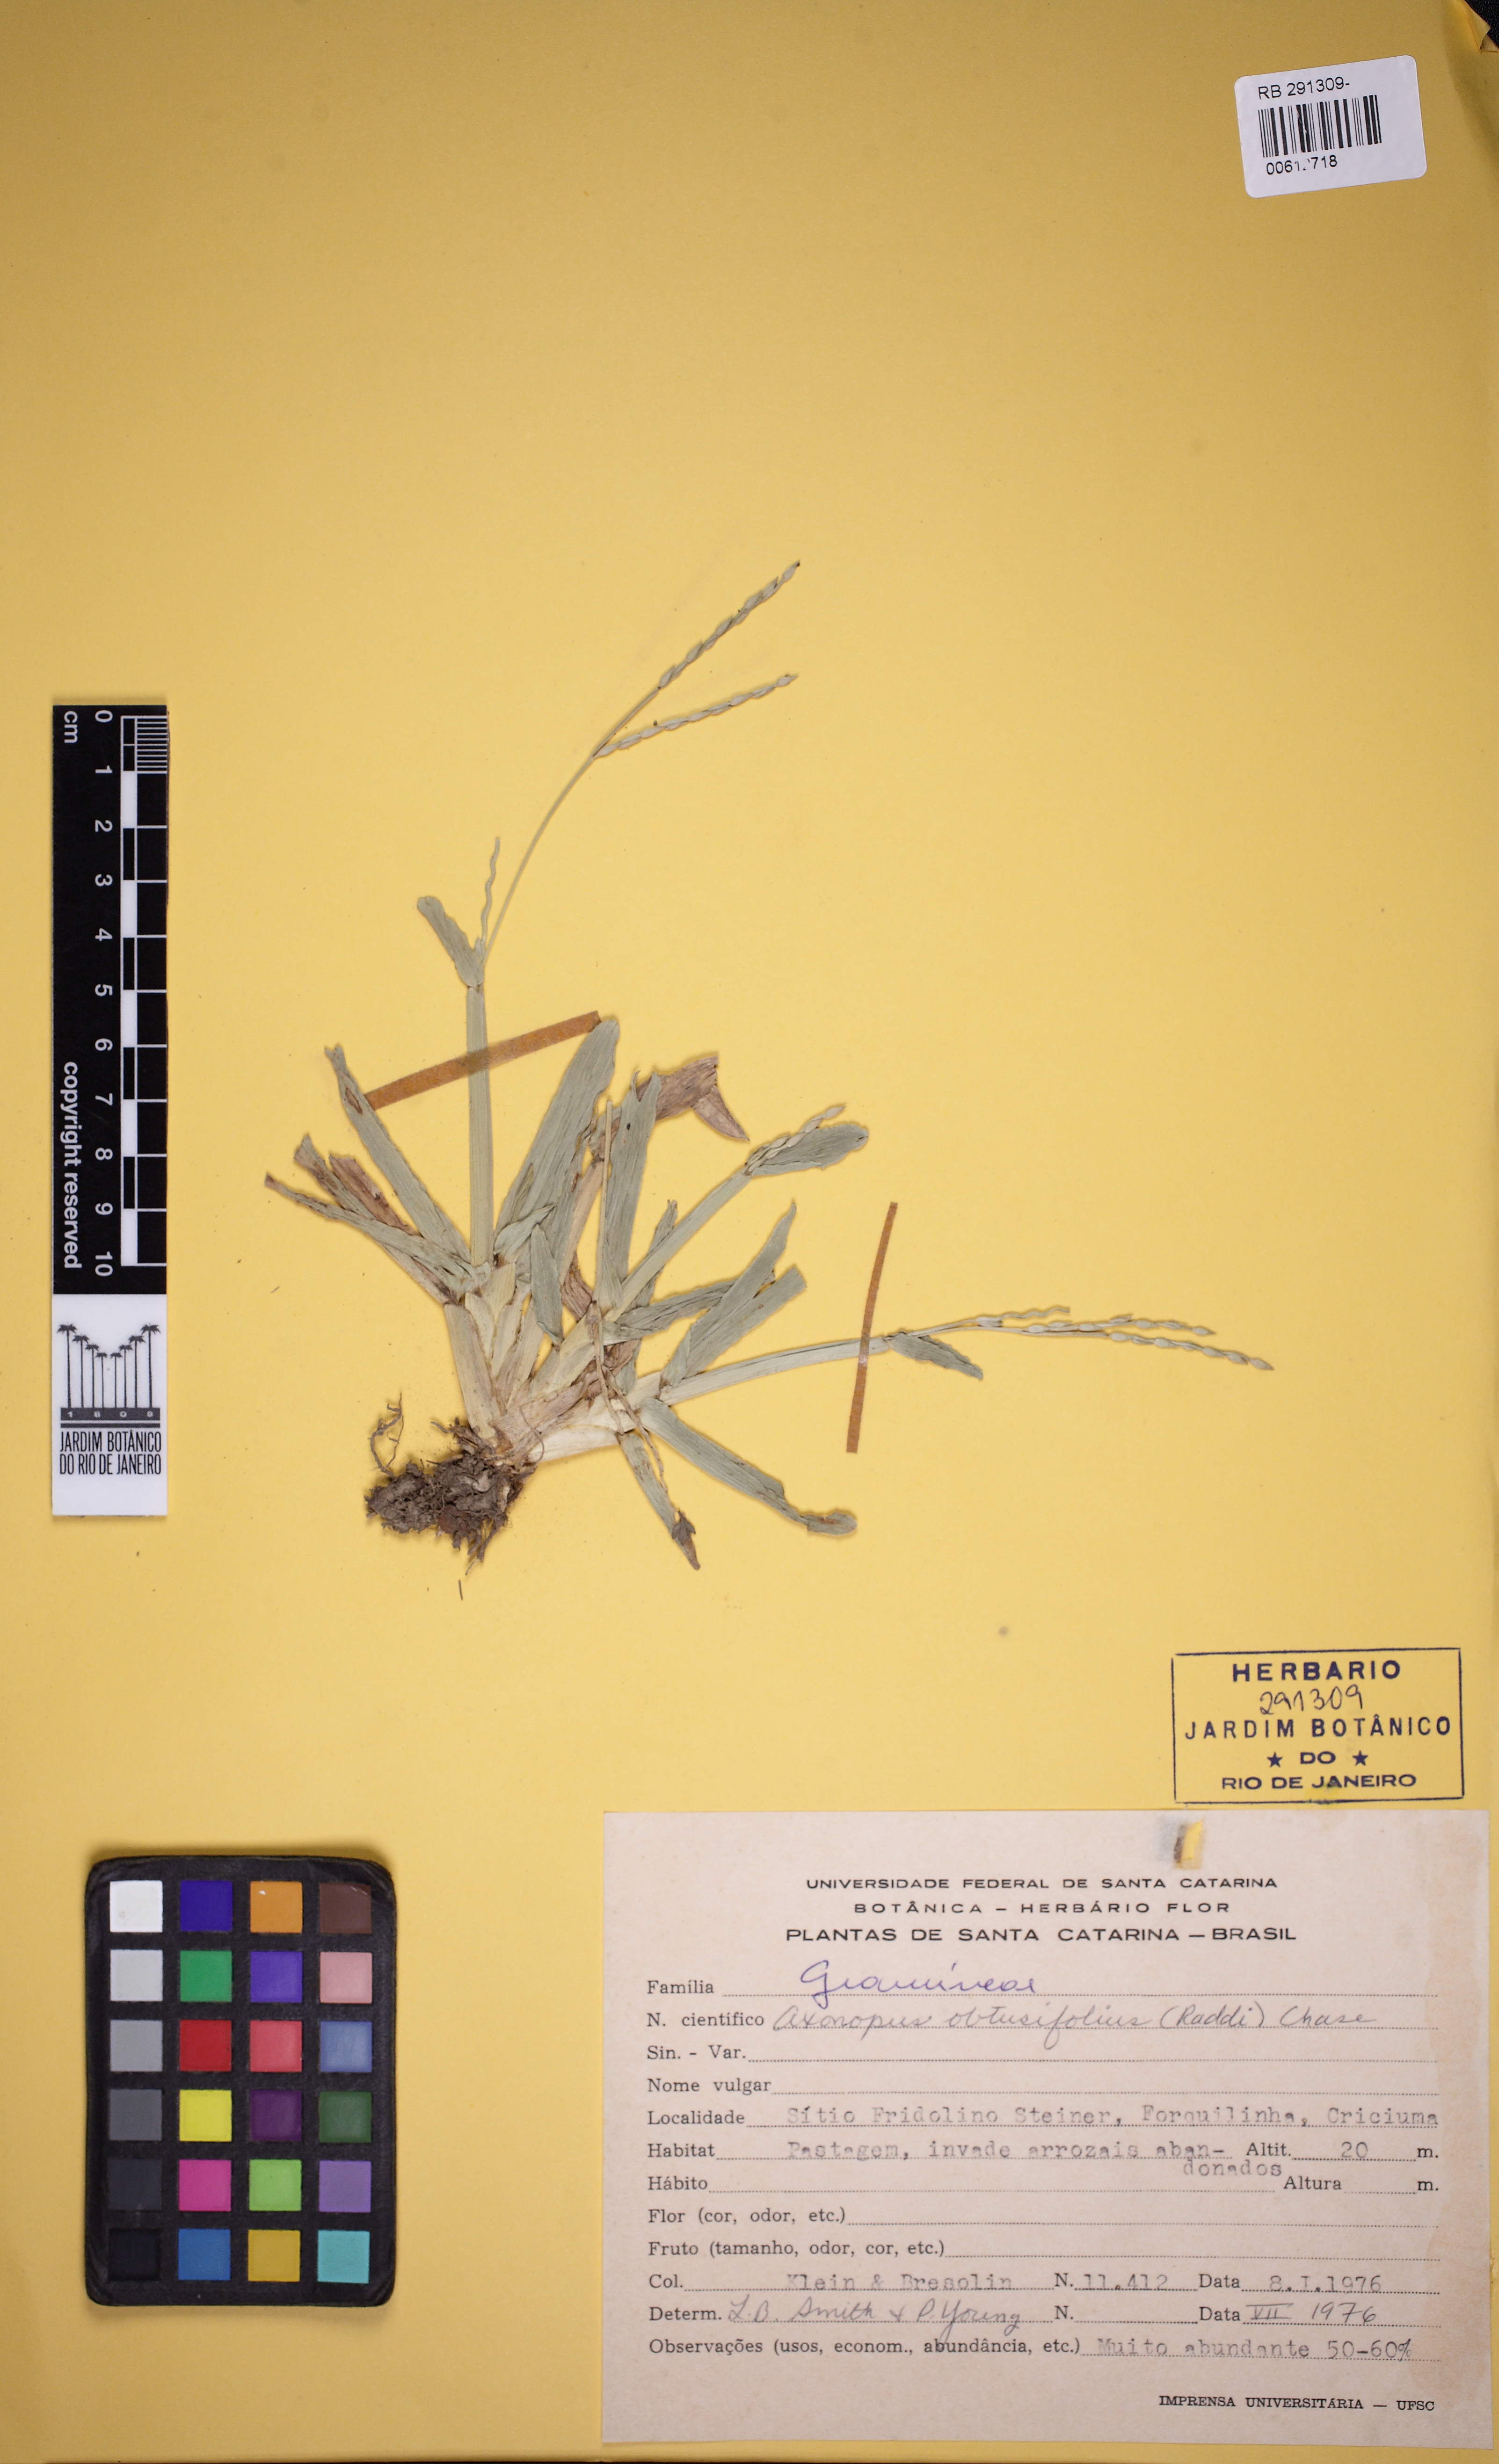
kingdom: Plantae
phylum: Tracheophyta
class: Liliopsida
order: Poales
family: Poaceae
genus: Axonopus
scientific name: Axonopus furcatus
